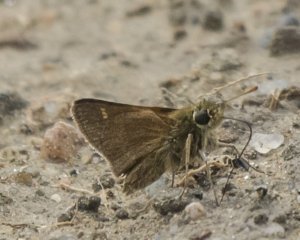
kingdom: Animalia
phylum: Arthropoda
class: Insecta
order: Lepidoptera
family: Hesperiidae
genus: Euphyes
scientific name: Euphyes vestris
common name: Dun Skipper
